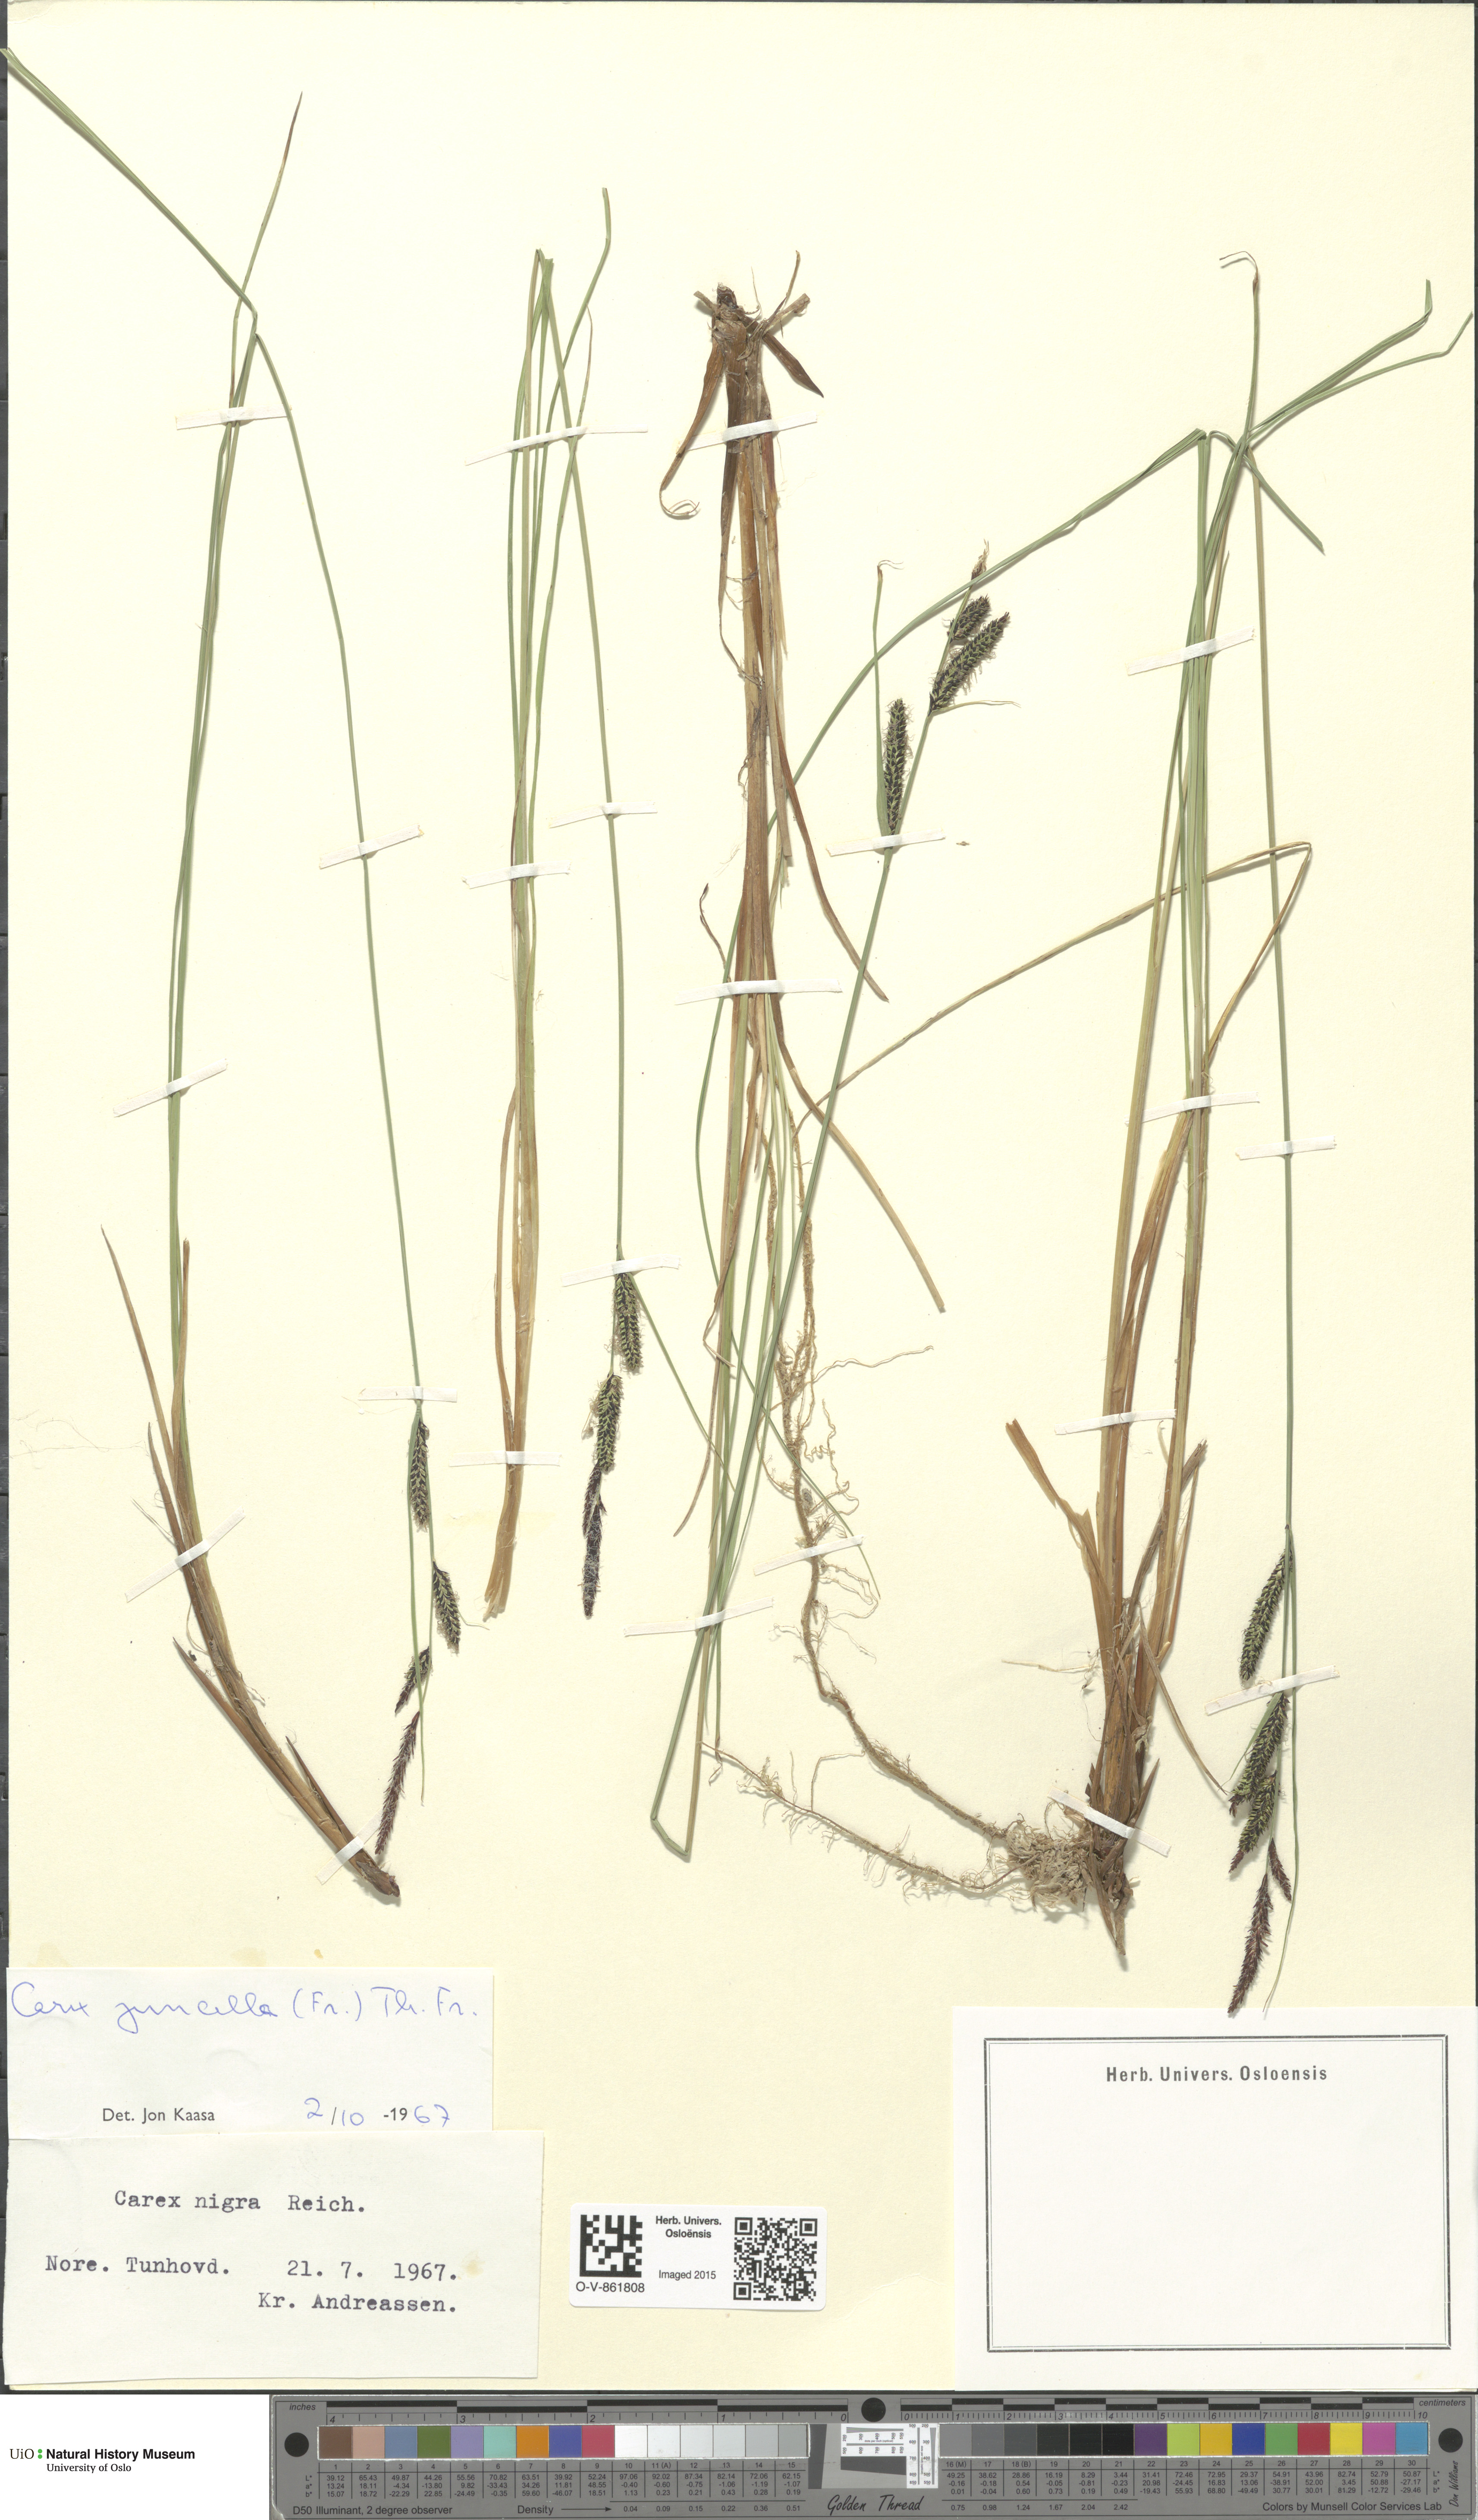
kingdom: Plantae
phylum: Tracheophyta
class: Liliopsida
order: Poales
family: Cyperaceae
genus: Carex
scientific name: Carex nigra
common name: Common sedge
